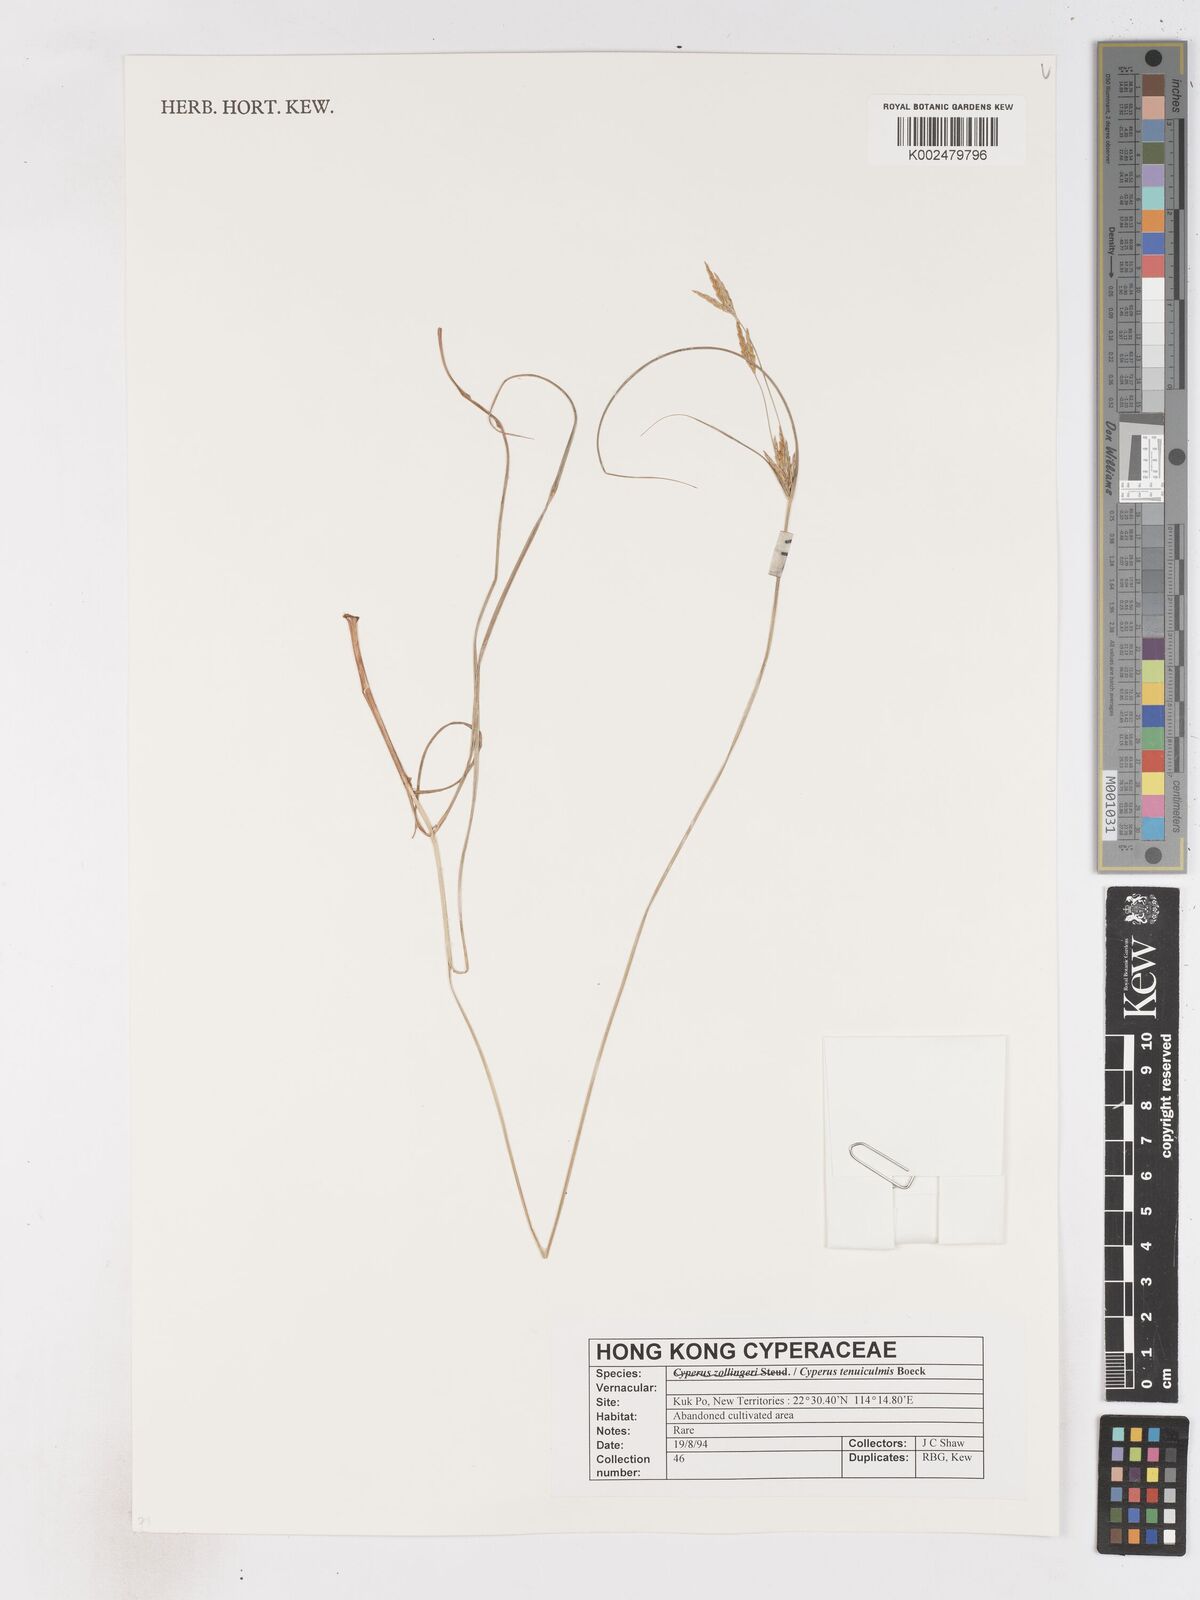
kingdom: Plantae
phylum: Tracheophyta
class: Liliopsida
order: Poales
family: Cyperaceae
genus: Cyperus
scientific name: Cyperus tenuiculmis
